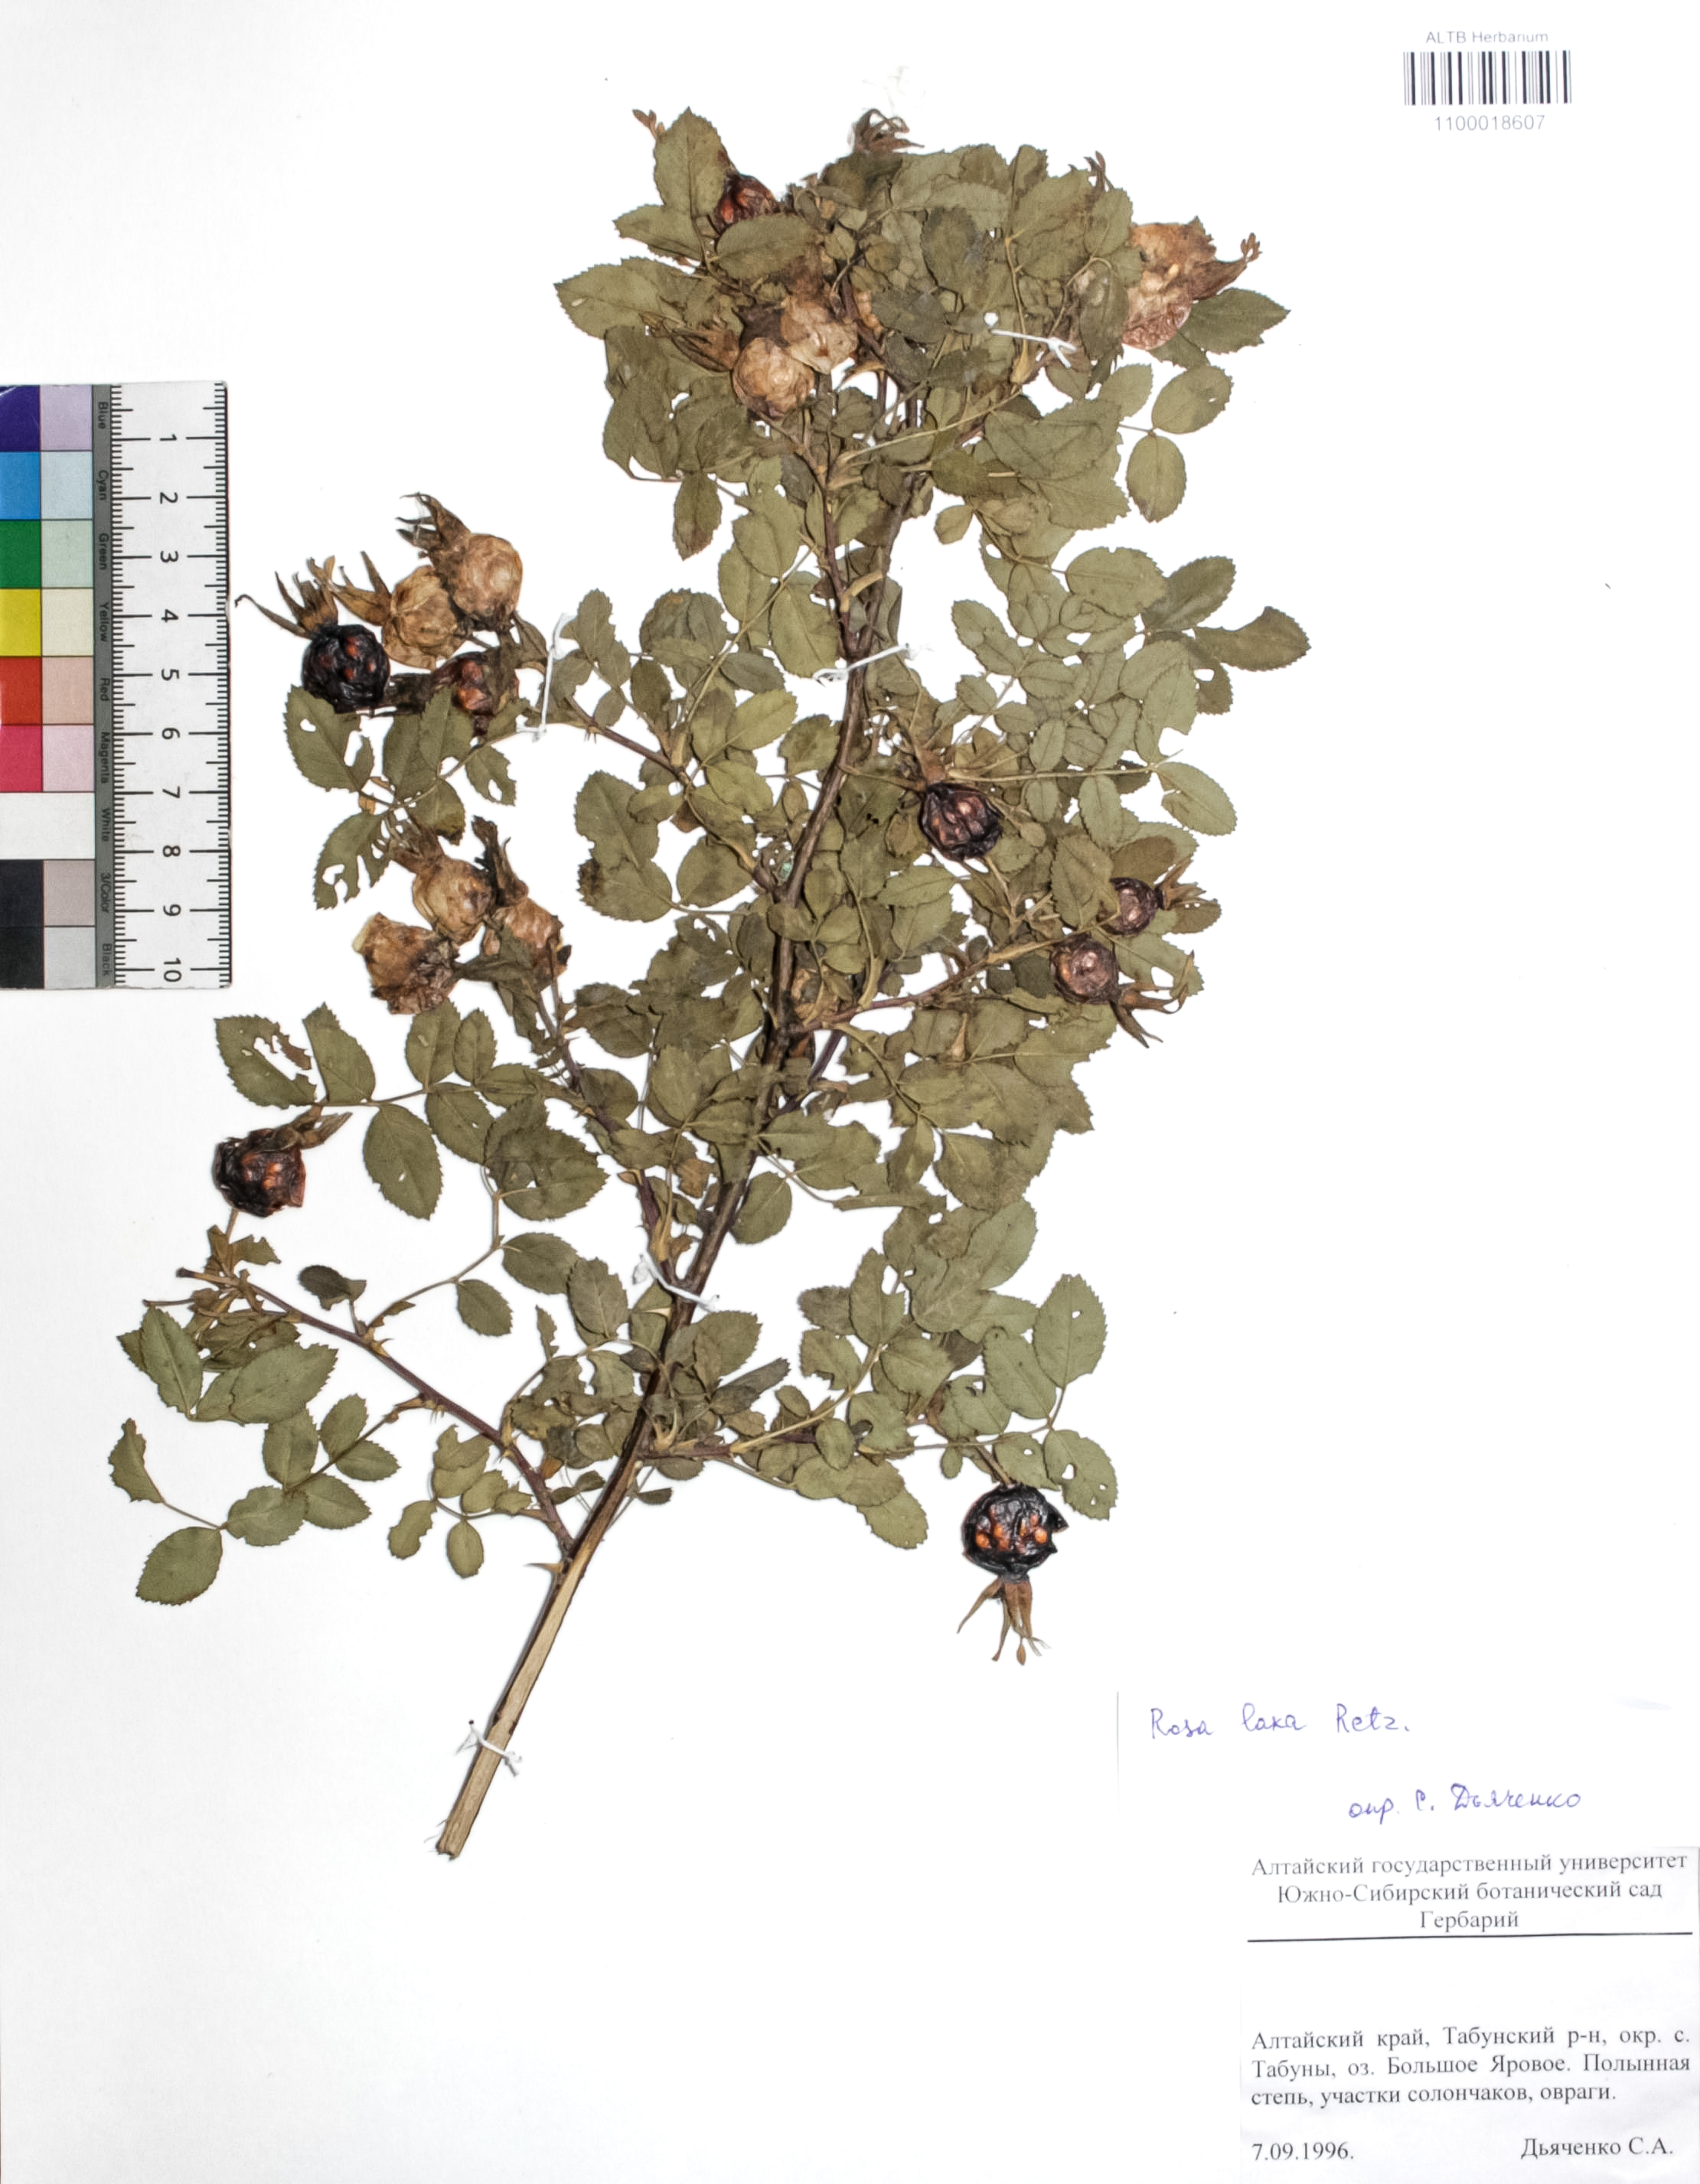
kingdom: Plantae
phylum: Tracheophyta
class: Magnoliopsida
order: Rosales
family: Rosaceae
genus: Rosa
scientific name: Rosa laxa
